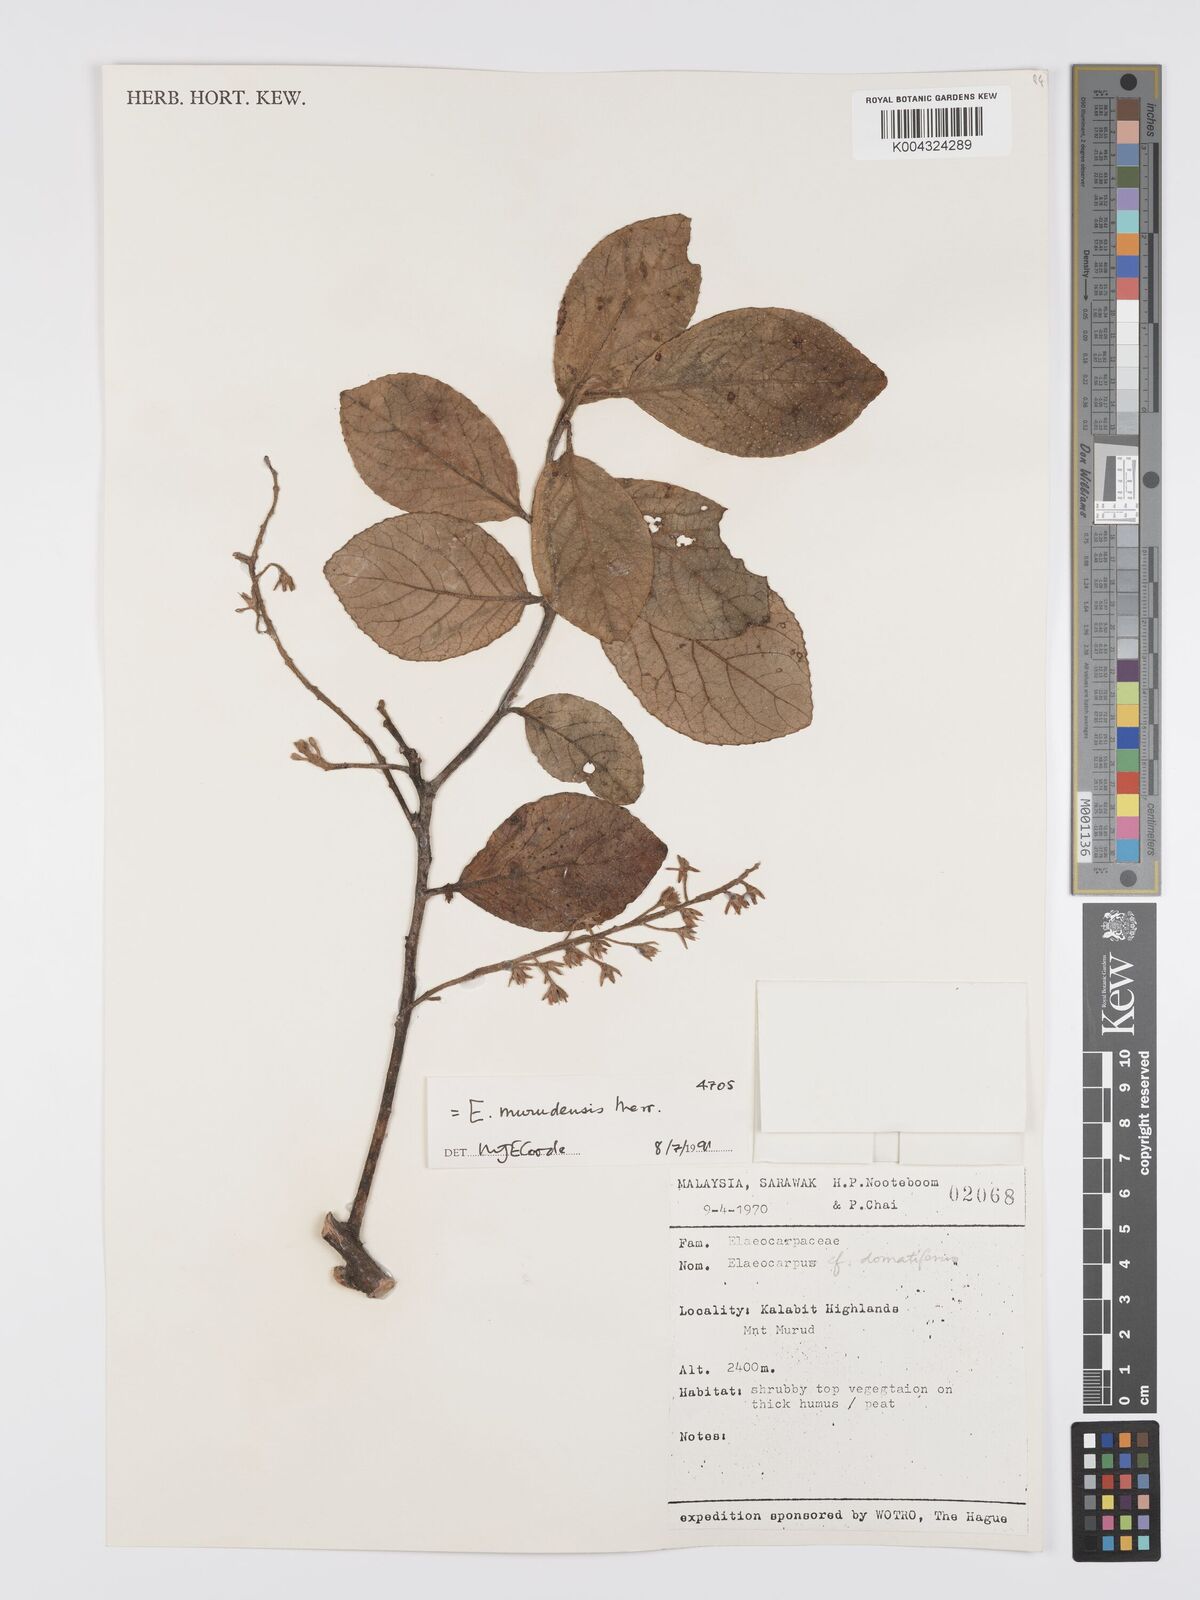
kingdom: Plantae
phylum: Tracheophyta
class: Magnoliopsida
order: Oxalidales
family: Elaeocarpaceae
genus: Elaeocarpus
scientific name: Elaeocarpus murudensis
